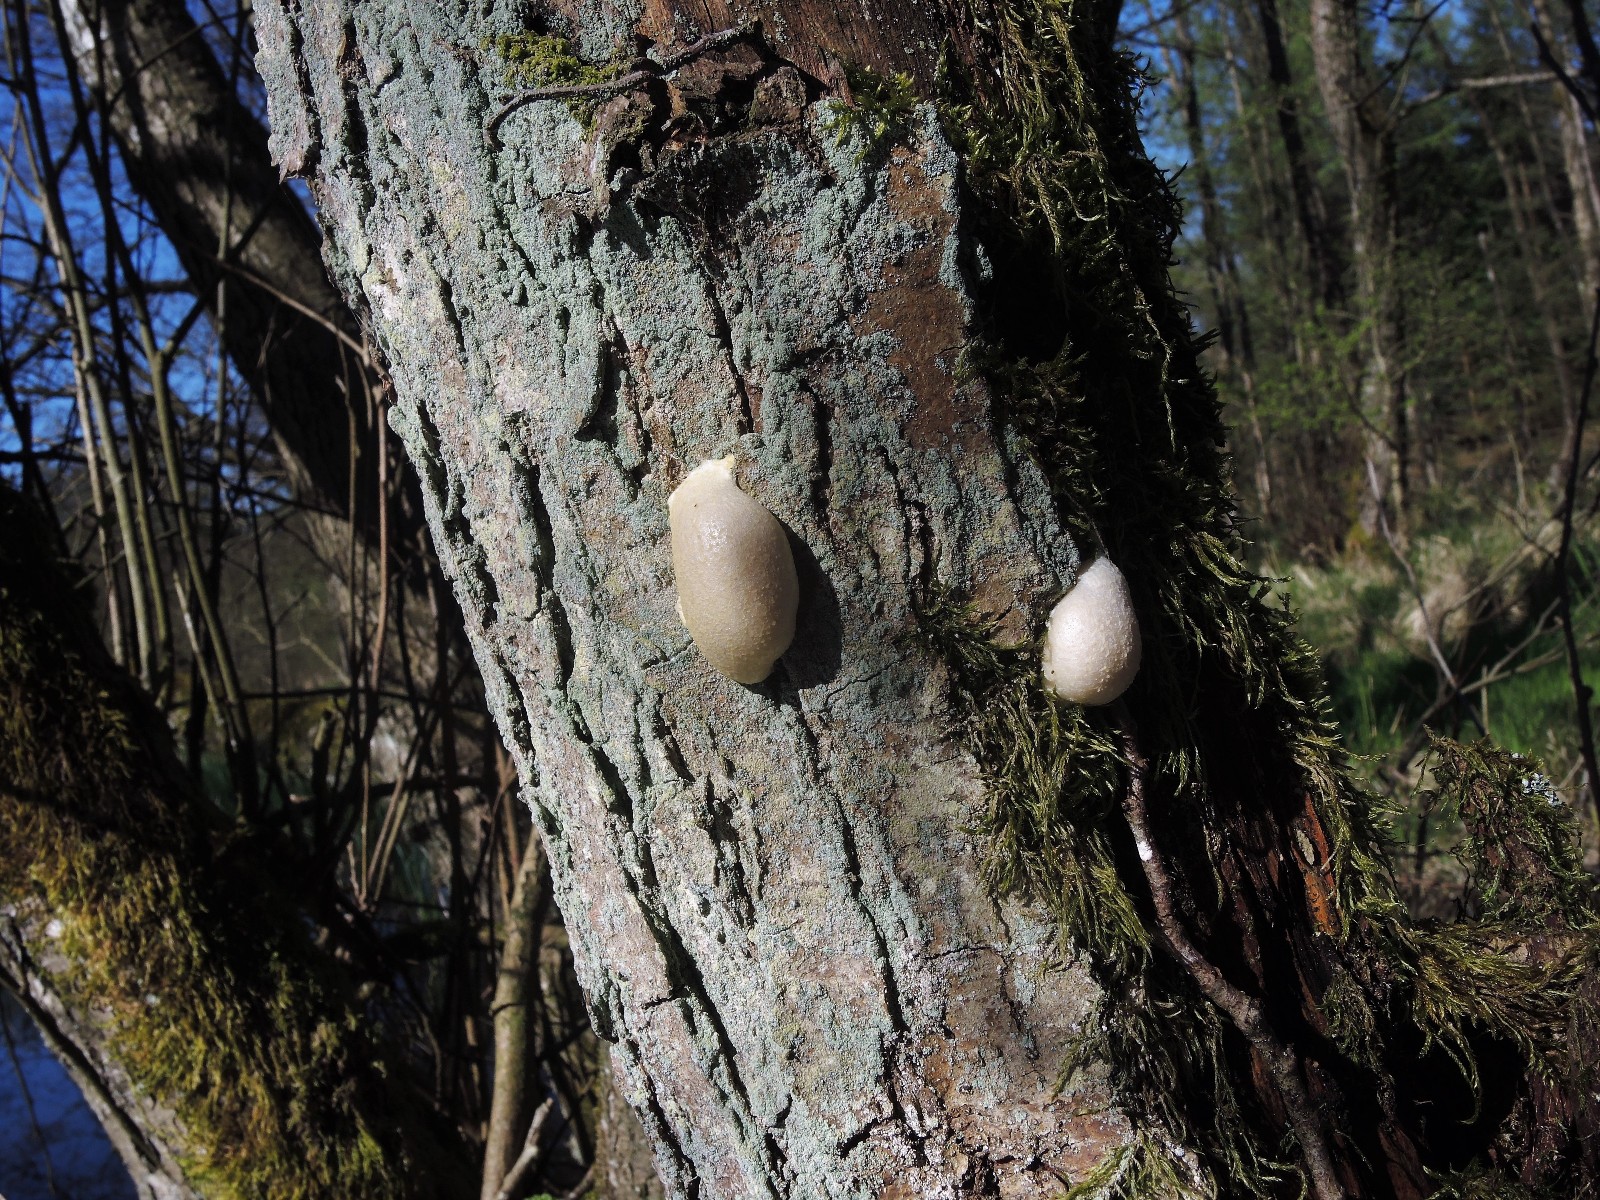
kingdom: Protozoa
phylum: Mycetozoa
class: Myxomycetes
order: Cribrariales
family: Tubiferaceae
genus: Reticularia
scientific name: Reticularia lycoperdon
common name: skinnende støvpude
